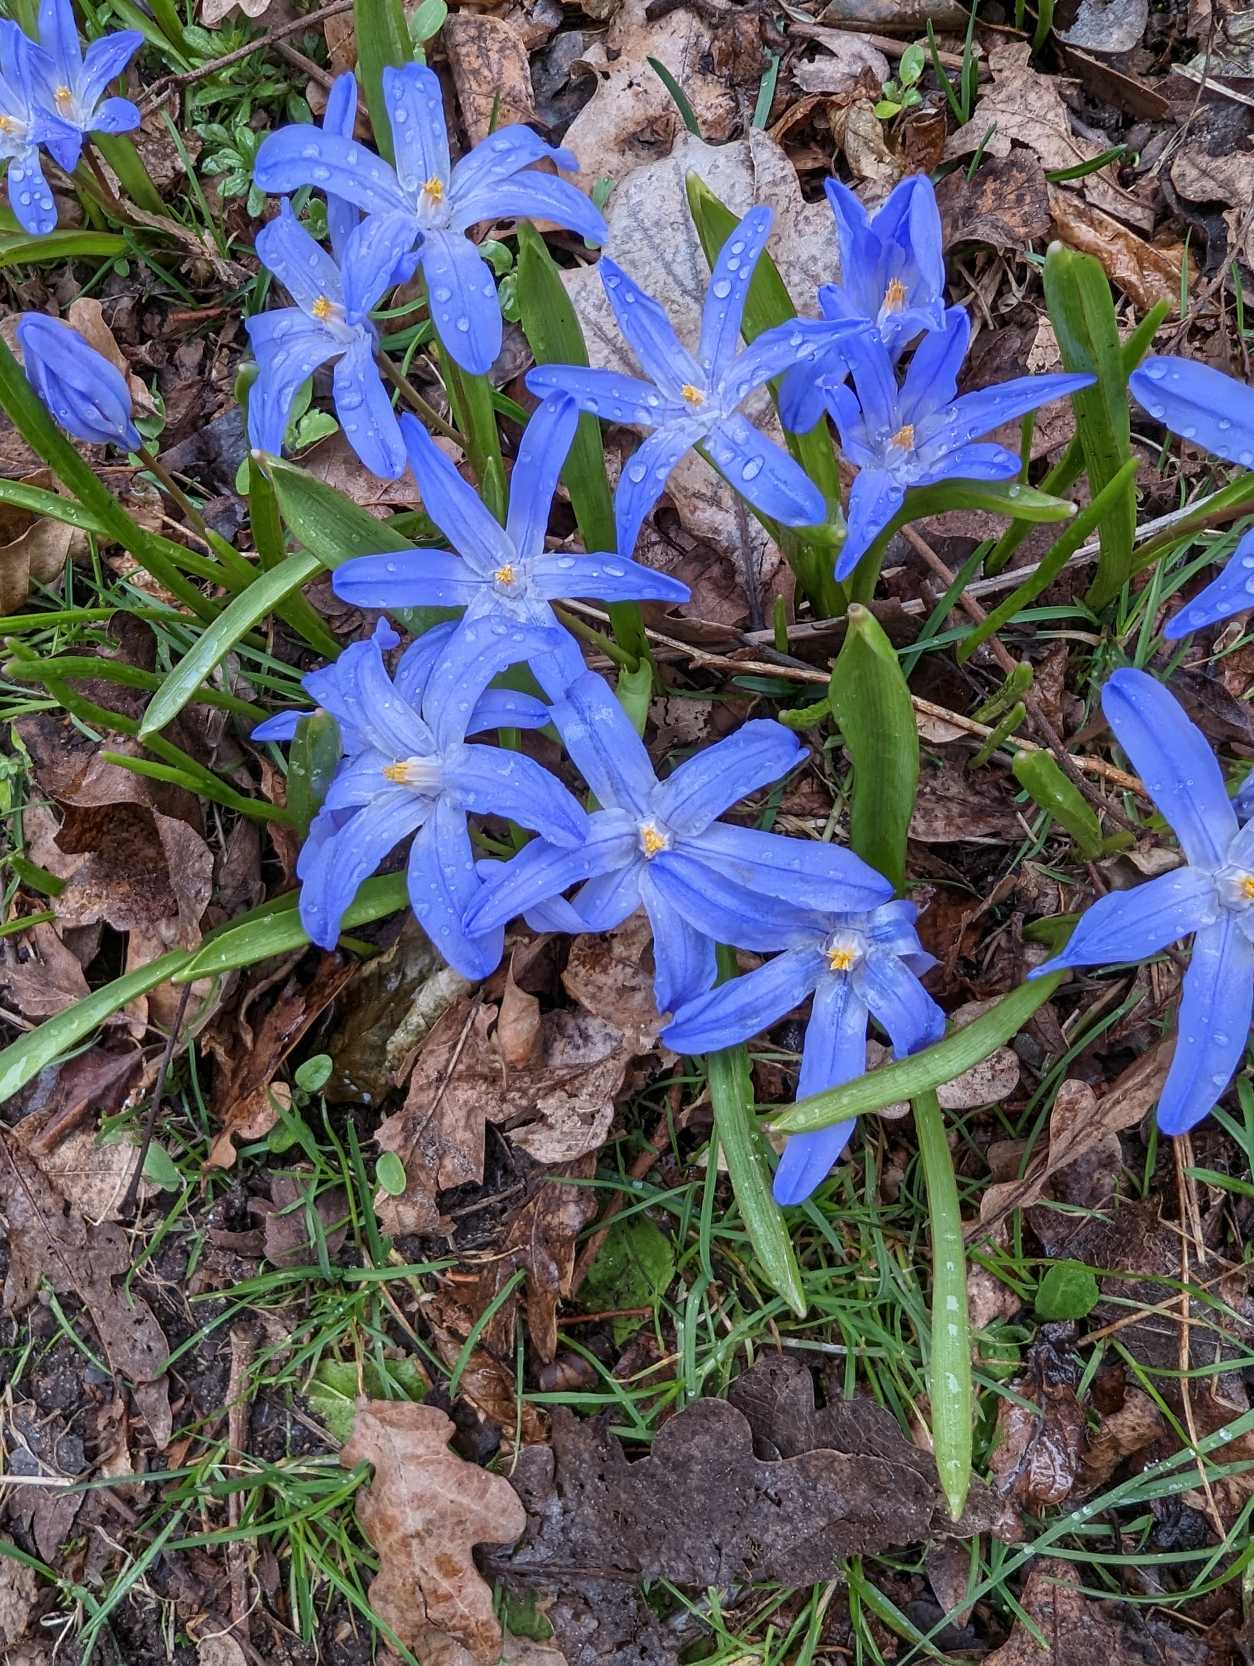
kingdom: Plantae
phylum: Tracheophyta
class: Liliopsida
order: Asparagales
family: Asparagaceae
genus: Scilla
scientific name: Scilla luciliae
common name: Stor snepryd
